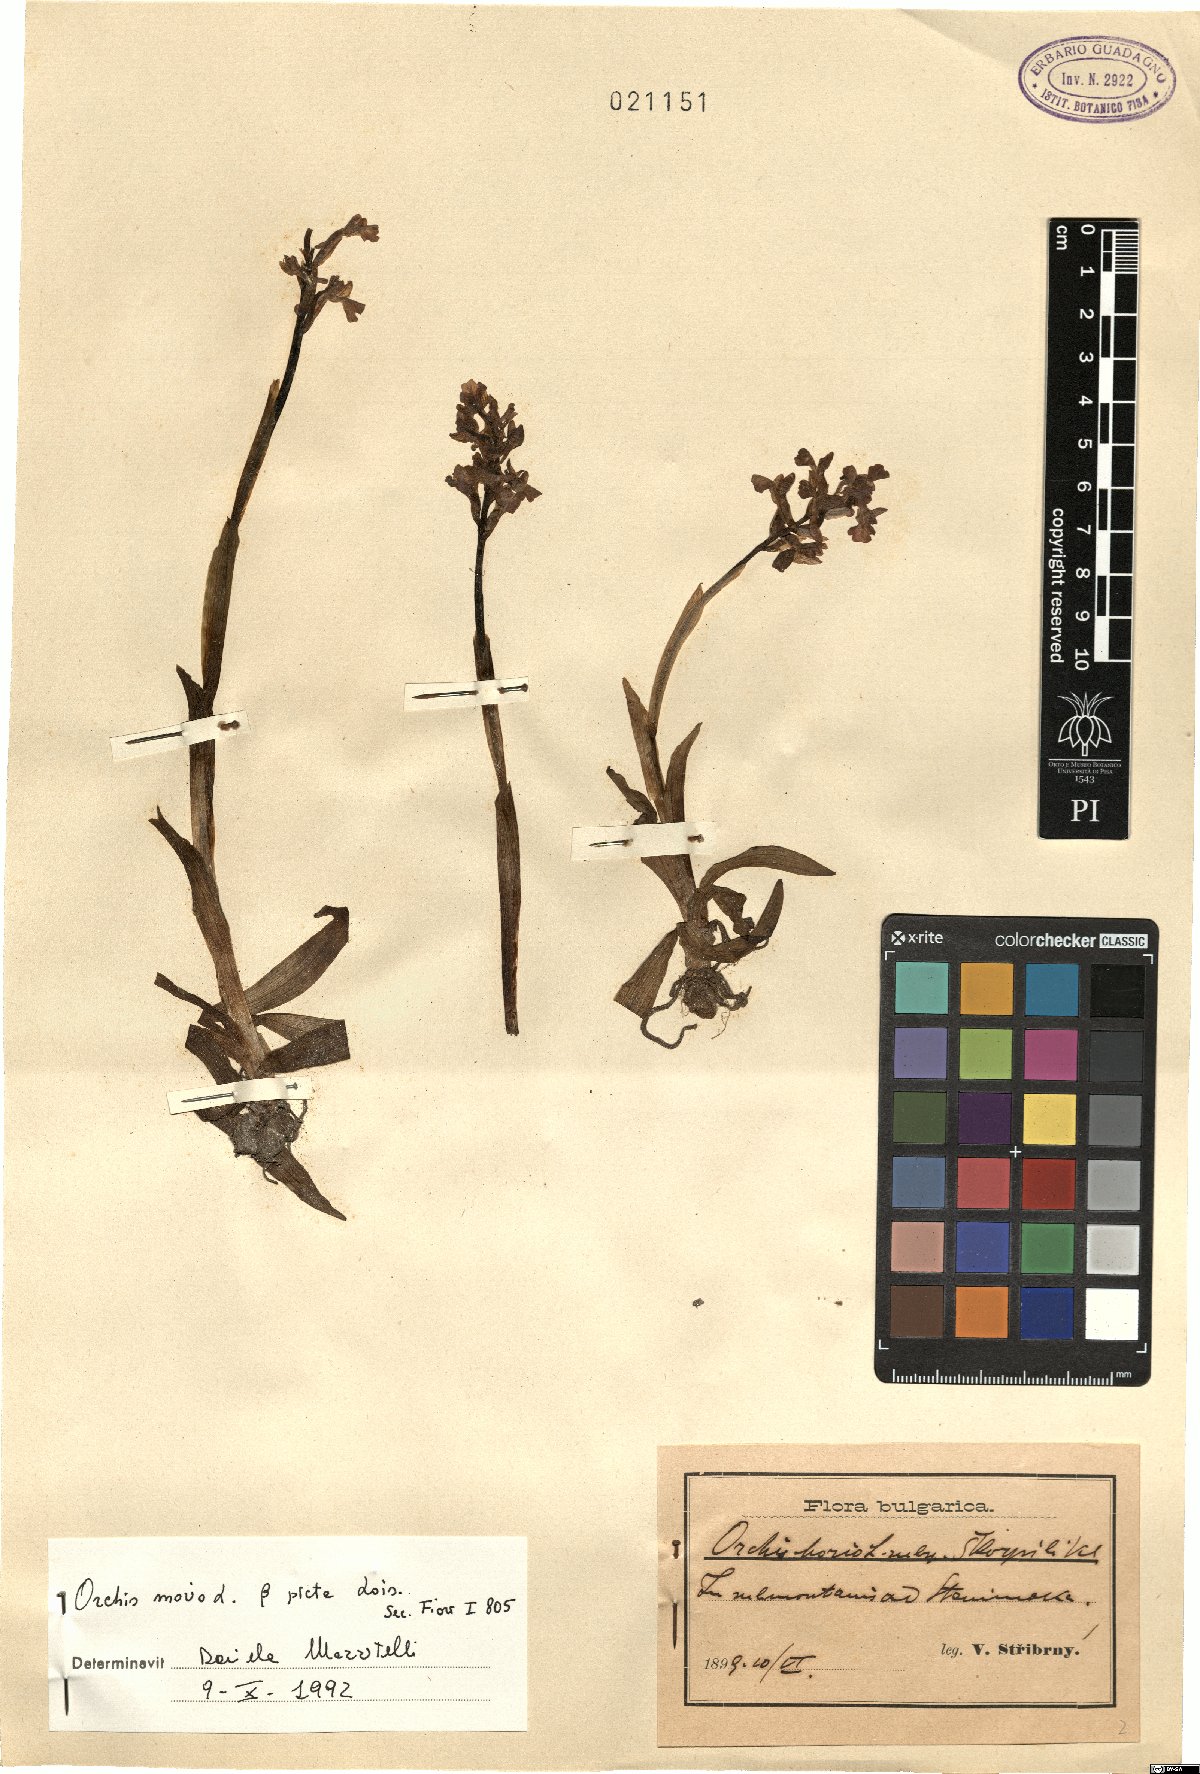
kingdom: Plantae
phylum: Tracheophyta
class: Liliopsida
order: Asparagales
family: Orchidaceae
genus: Anacamptis
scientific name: Anacamptis morio
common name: Green-winged orchid
